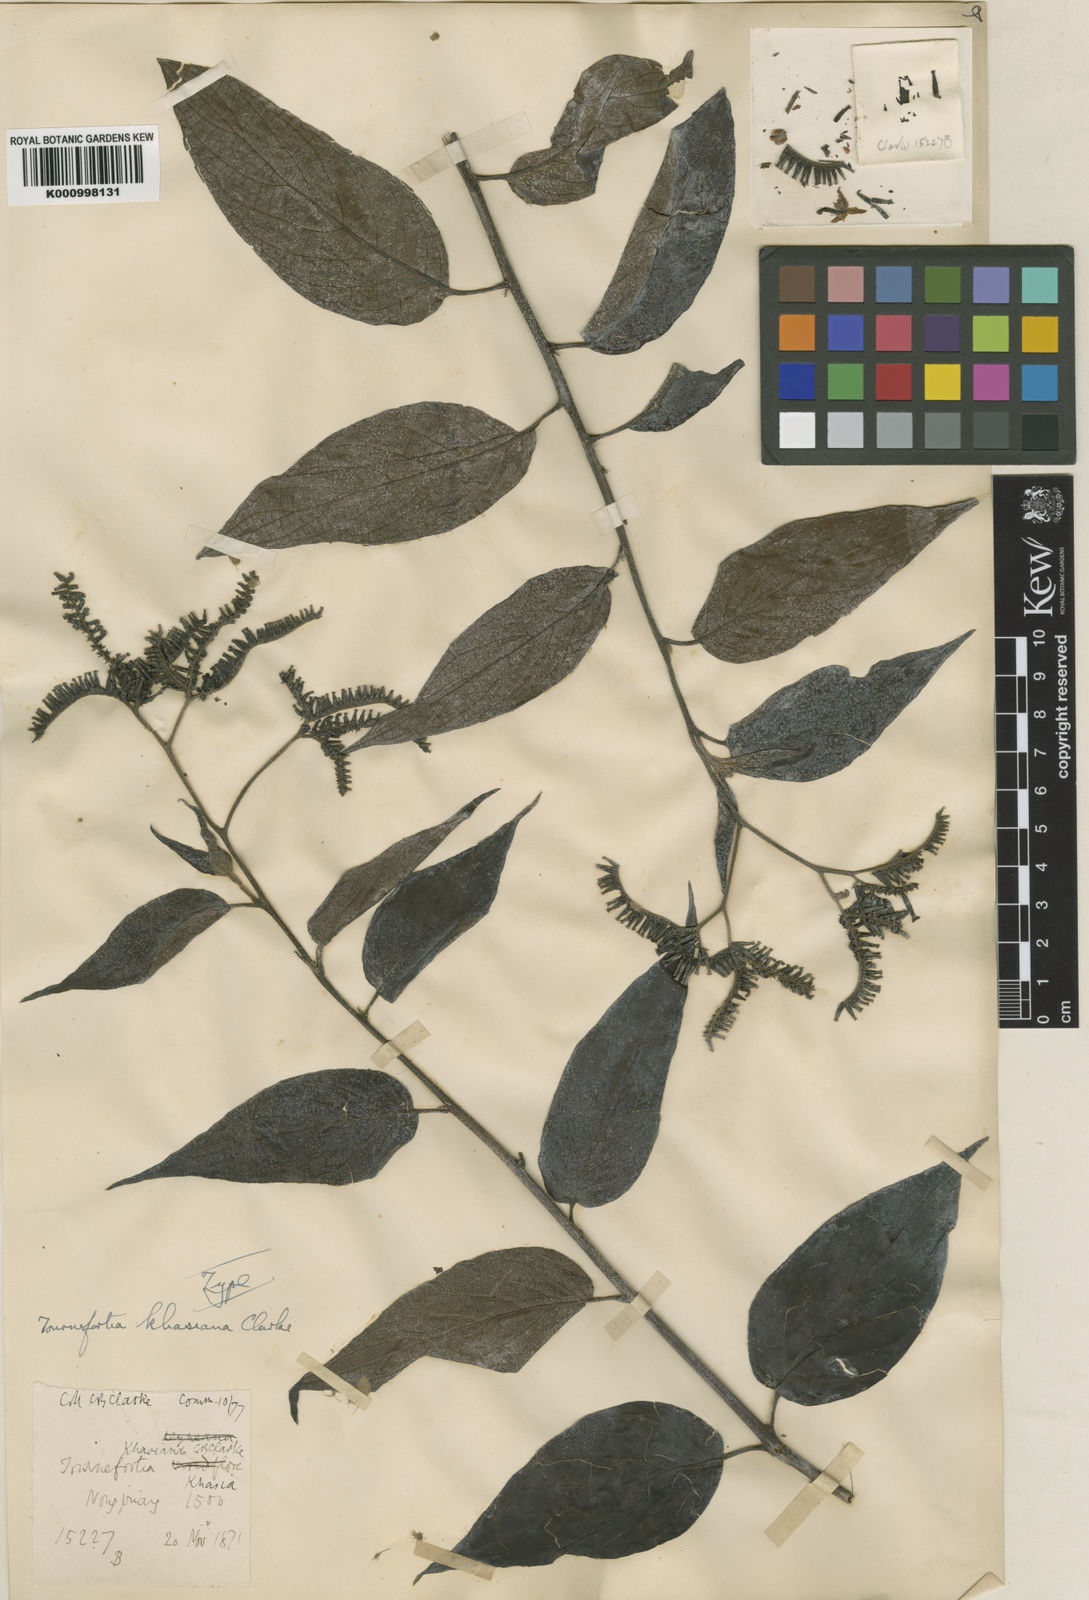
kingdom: Plantae
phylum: Tracheophyta
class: Magnoliopsida
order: Boraginales
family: Heliotropiaceae
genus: Tournefortia
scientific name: Tournefortia khasiana
